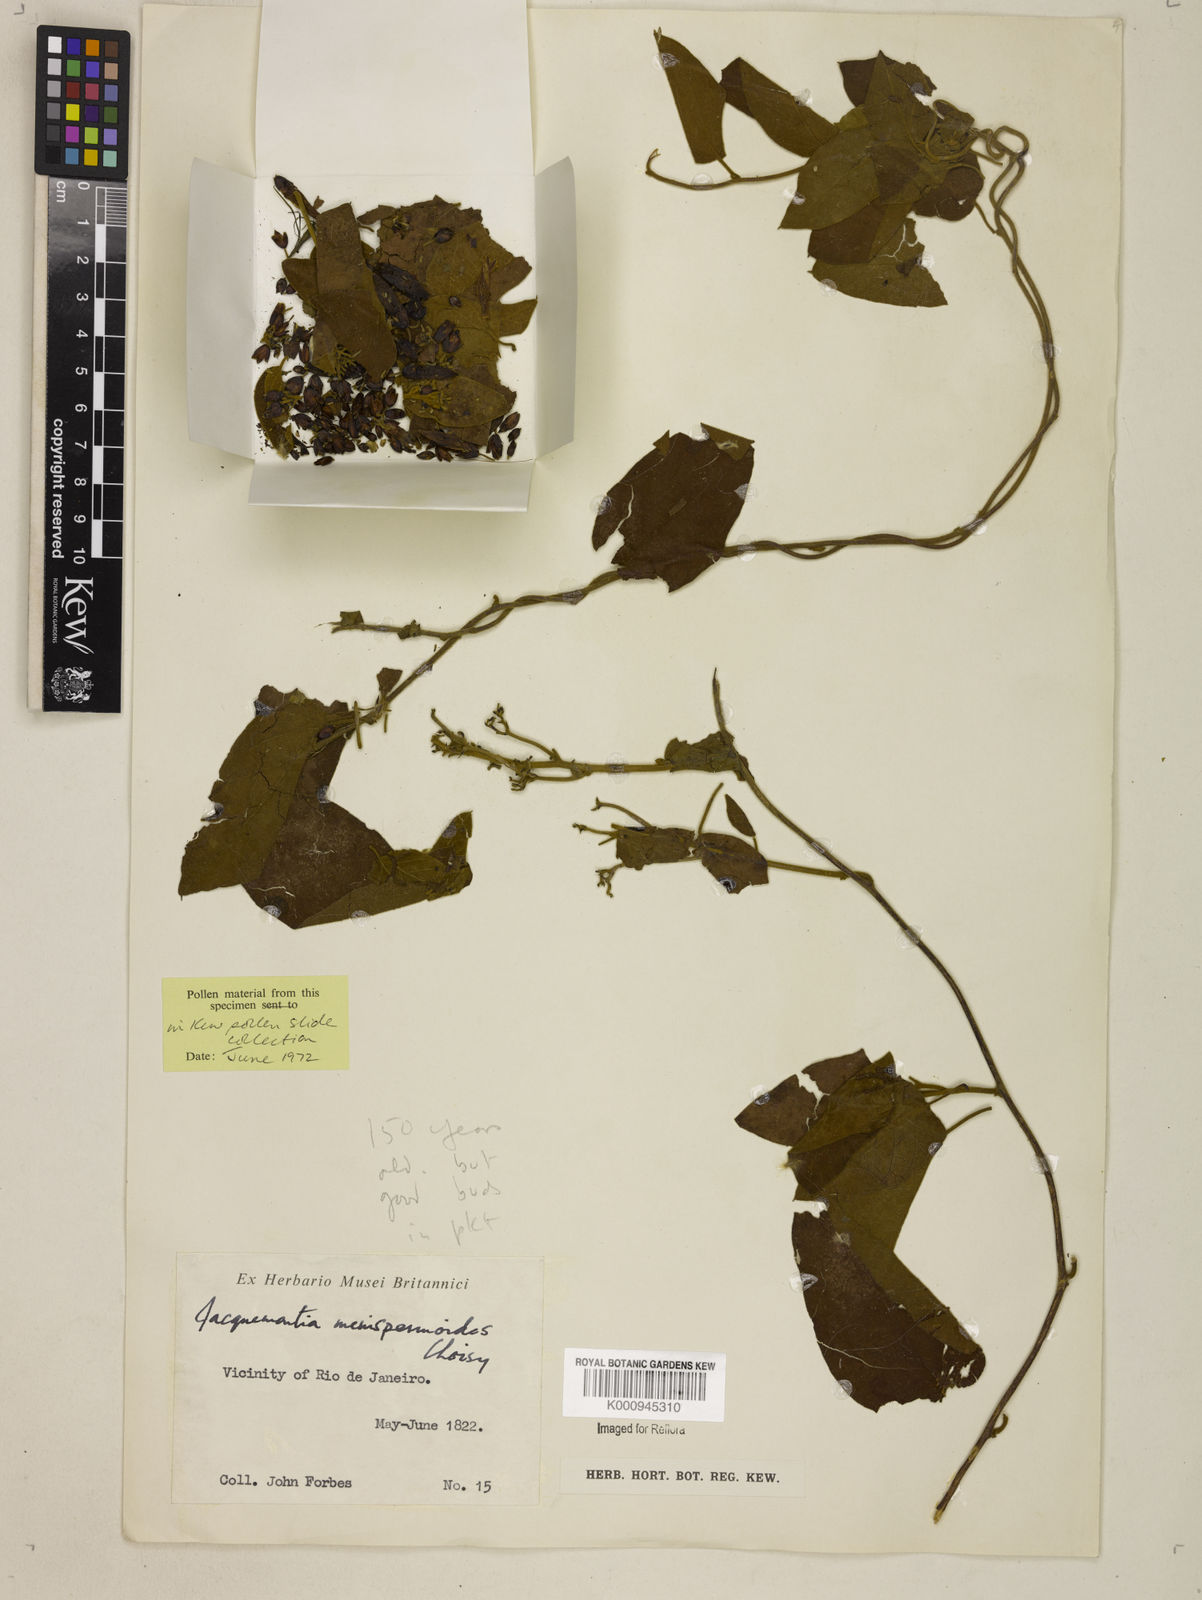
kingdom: Plantae
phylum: Tracheophyta
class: Magnoliopsida
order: Solanales
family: Convolvulaceae
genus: Jacquemontia
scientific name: Jacquemontia holosericea
